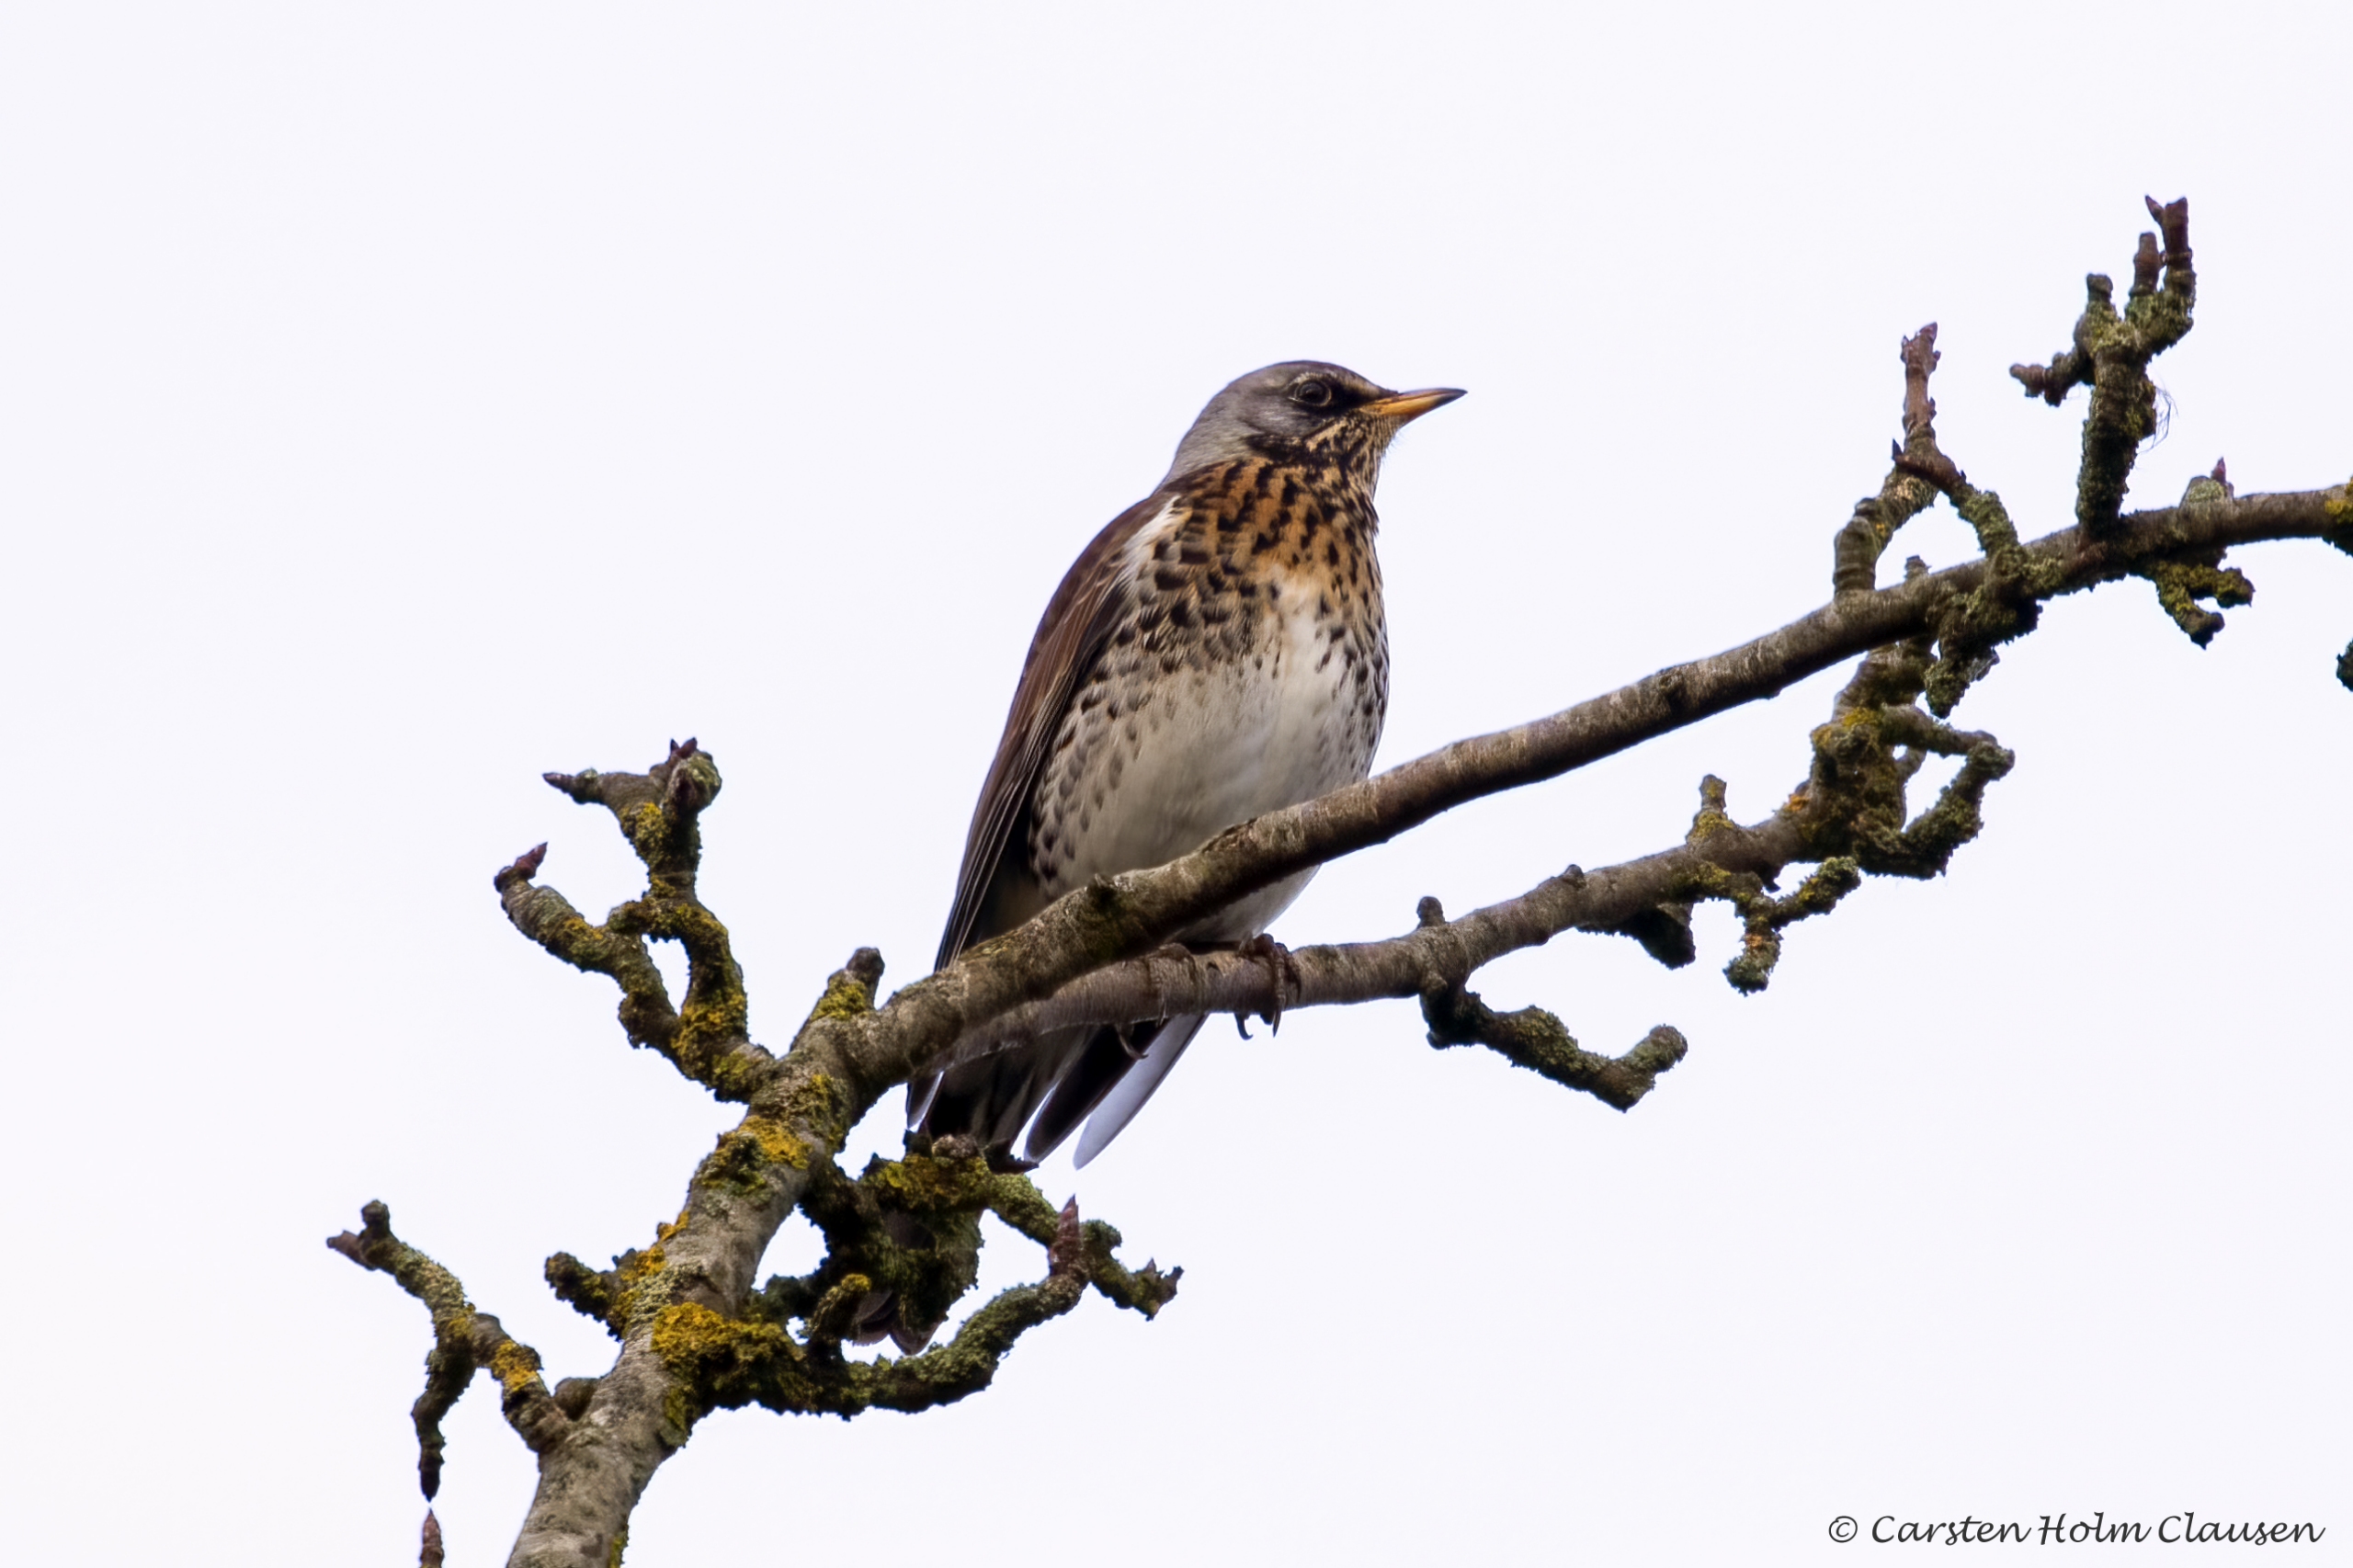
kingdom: Animalia
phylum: Chordata
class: Aves
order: Passeriformes
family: Turdidae
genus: Turdus
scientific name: Turdus pilaris
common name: Sjagger
